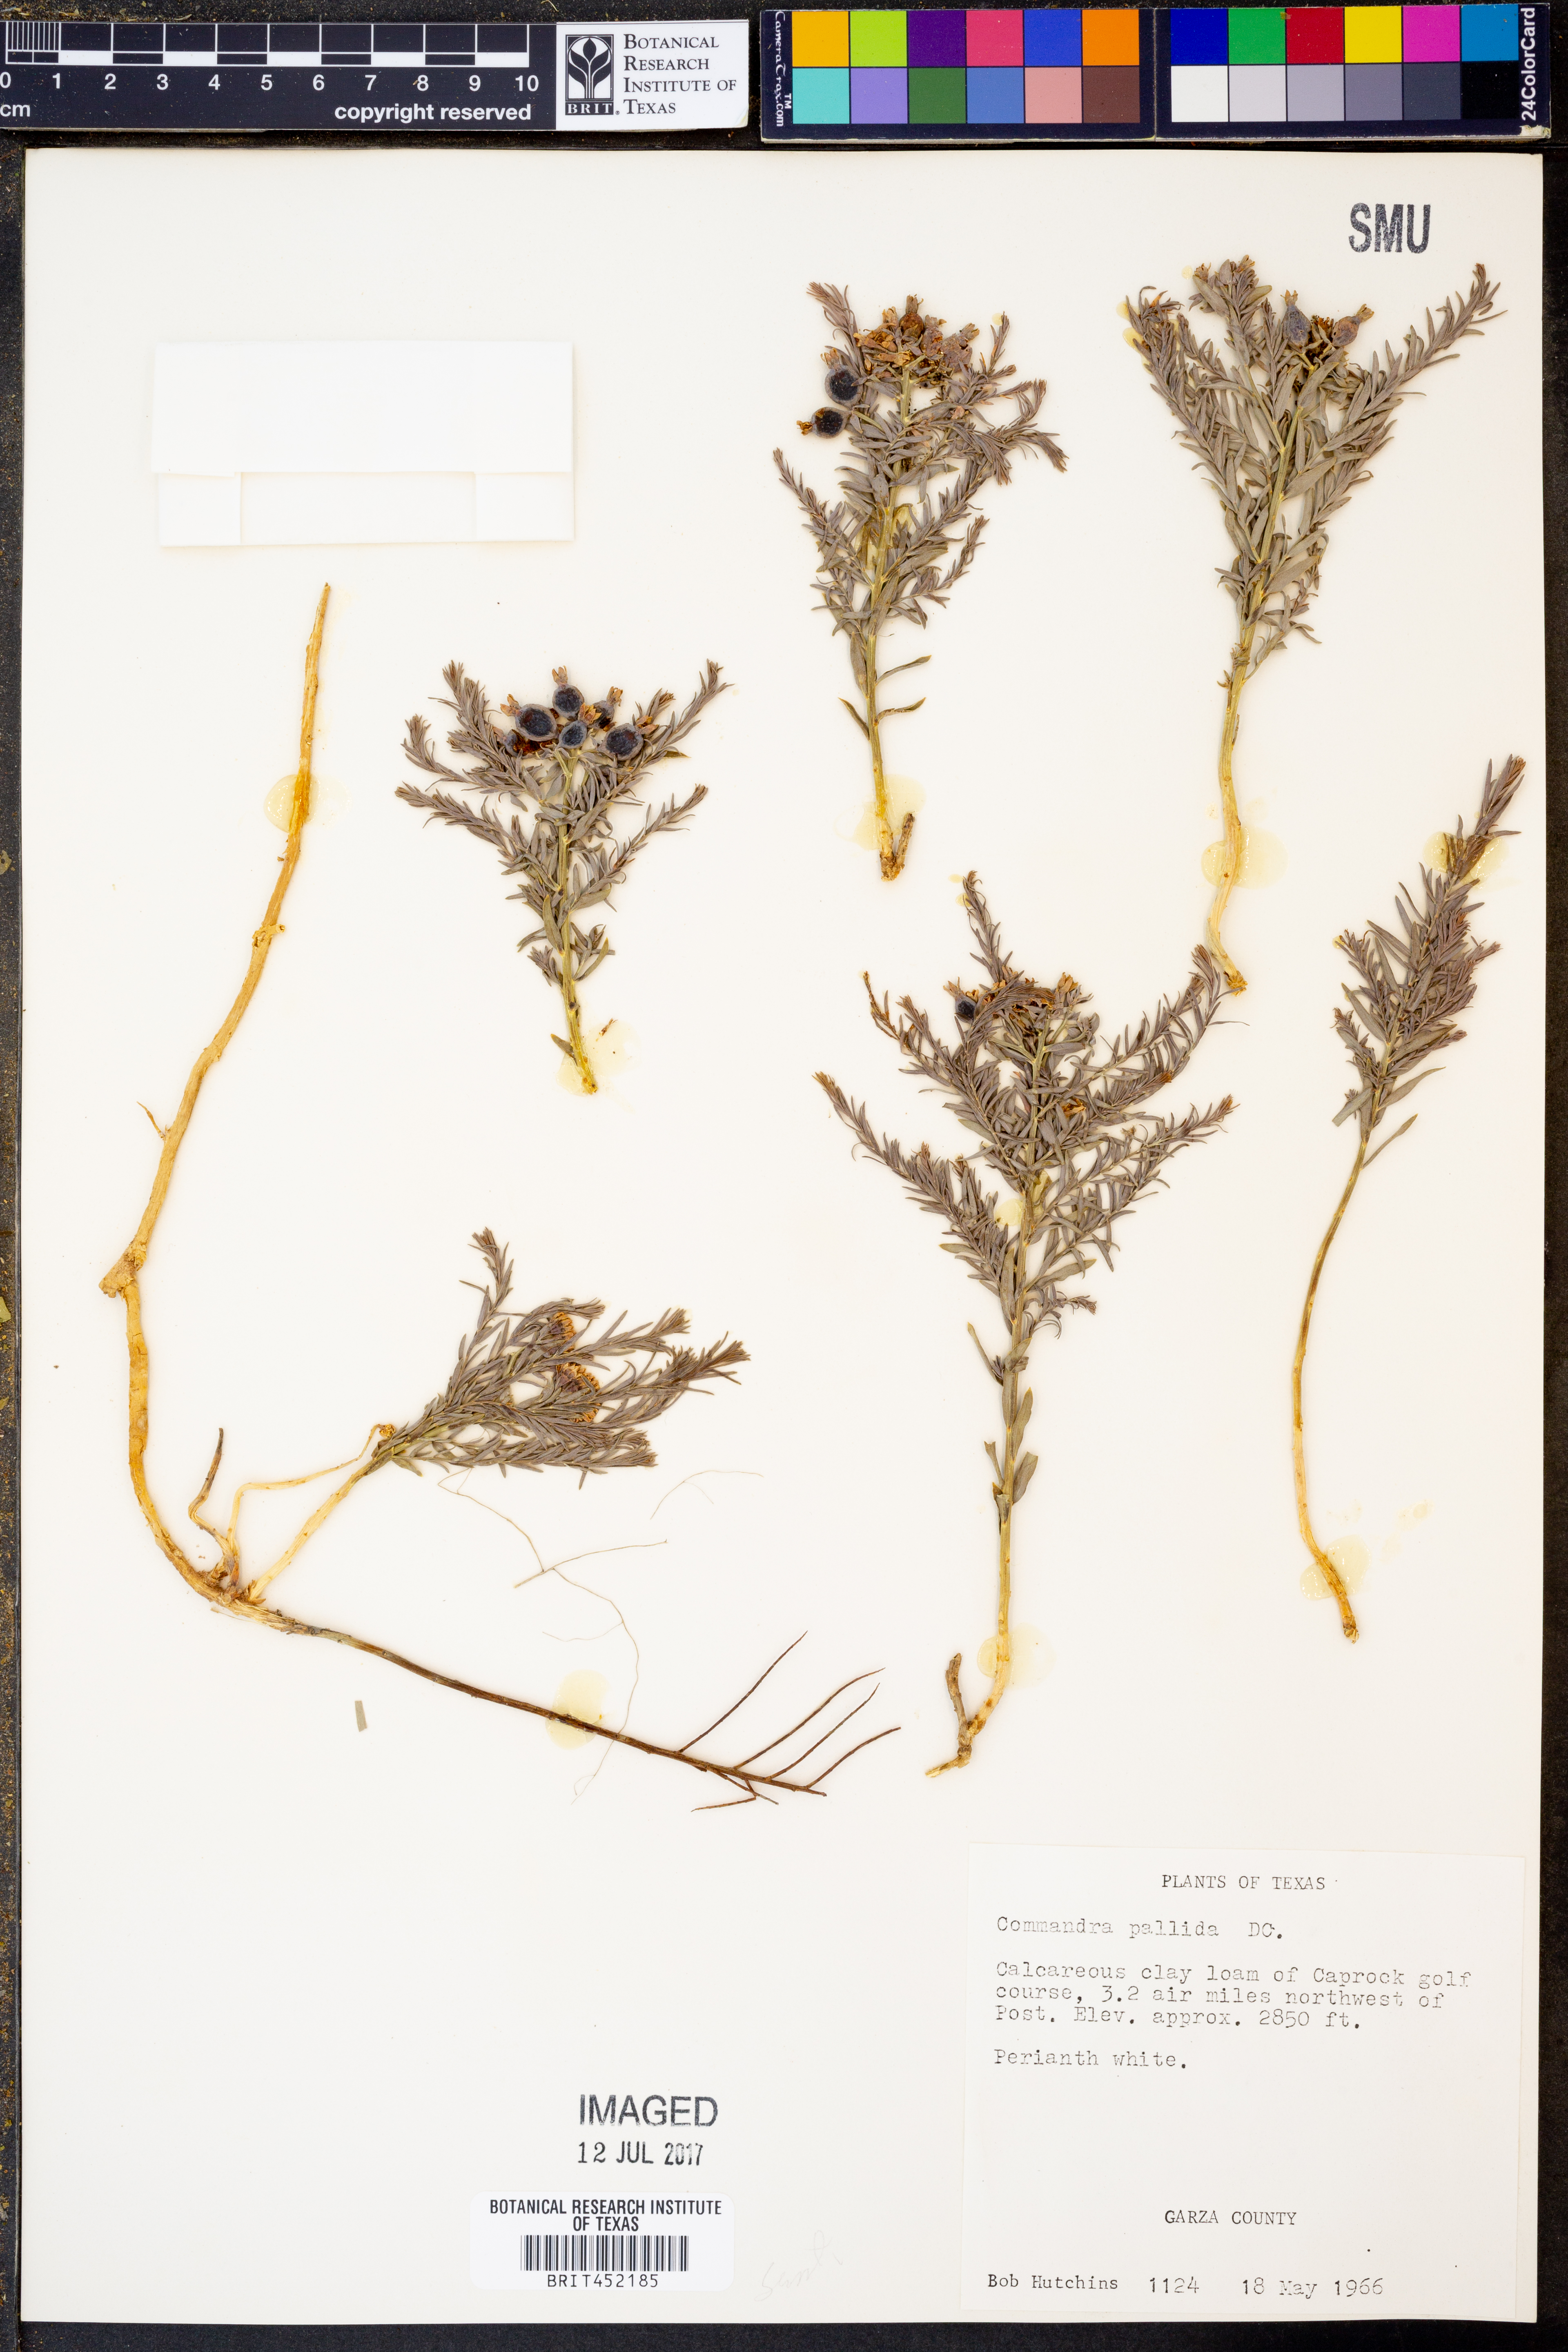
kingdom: Plantae
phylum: Tracheophyta
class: Magnoliopsida
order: Santalales
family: Comandraceae
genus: Comandra
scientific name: Comandra umbellata
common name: Bastard toadflax
